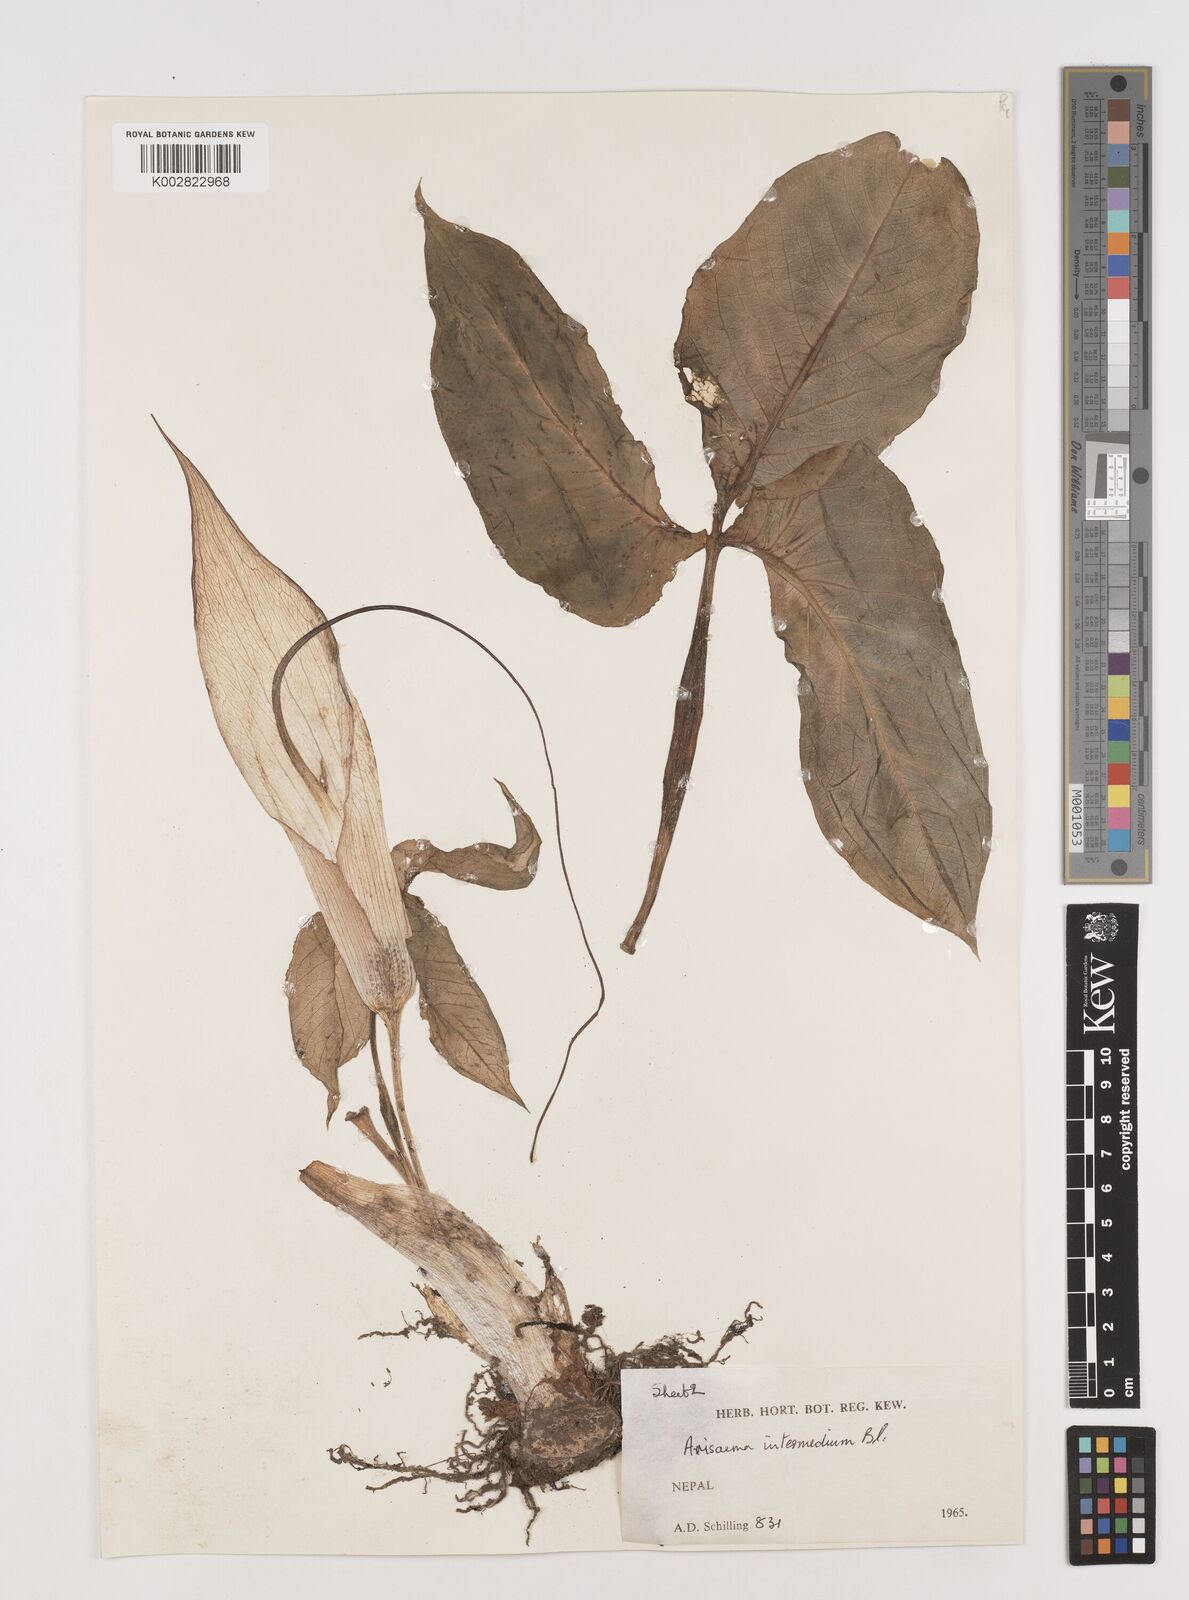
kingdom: Plantae
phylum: Tracheophyta
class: Liliopsida
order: Alismatales
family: Araceae
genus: Arisaema
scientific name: Arisaema intermedium
